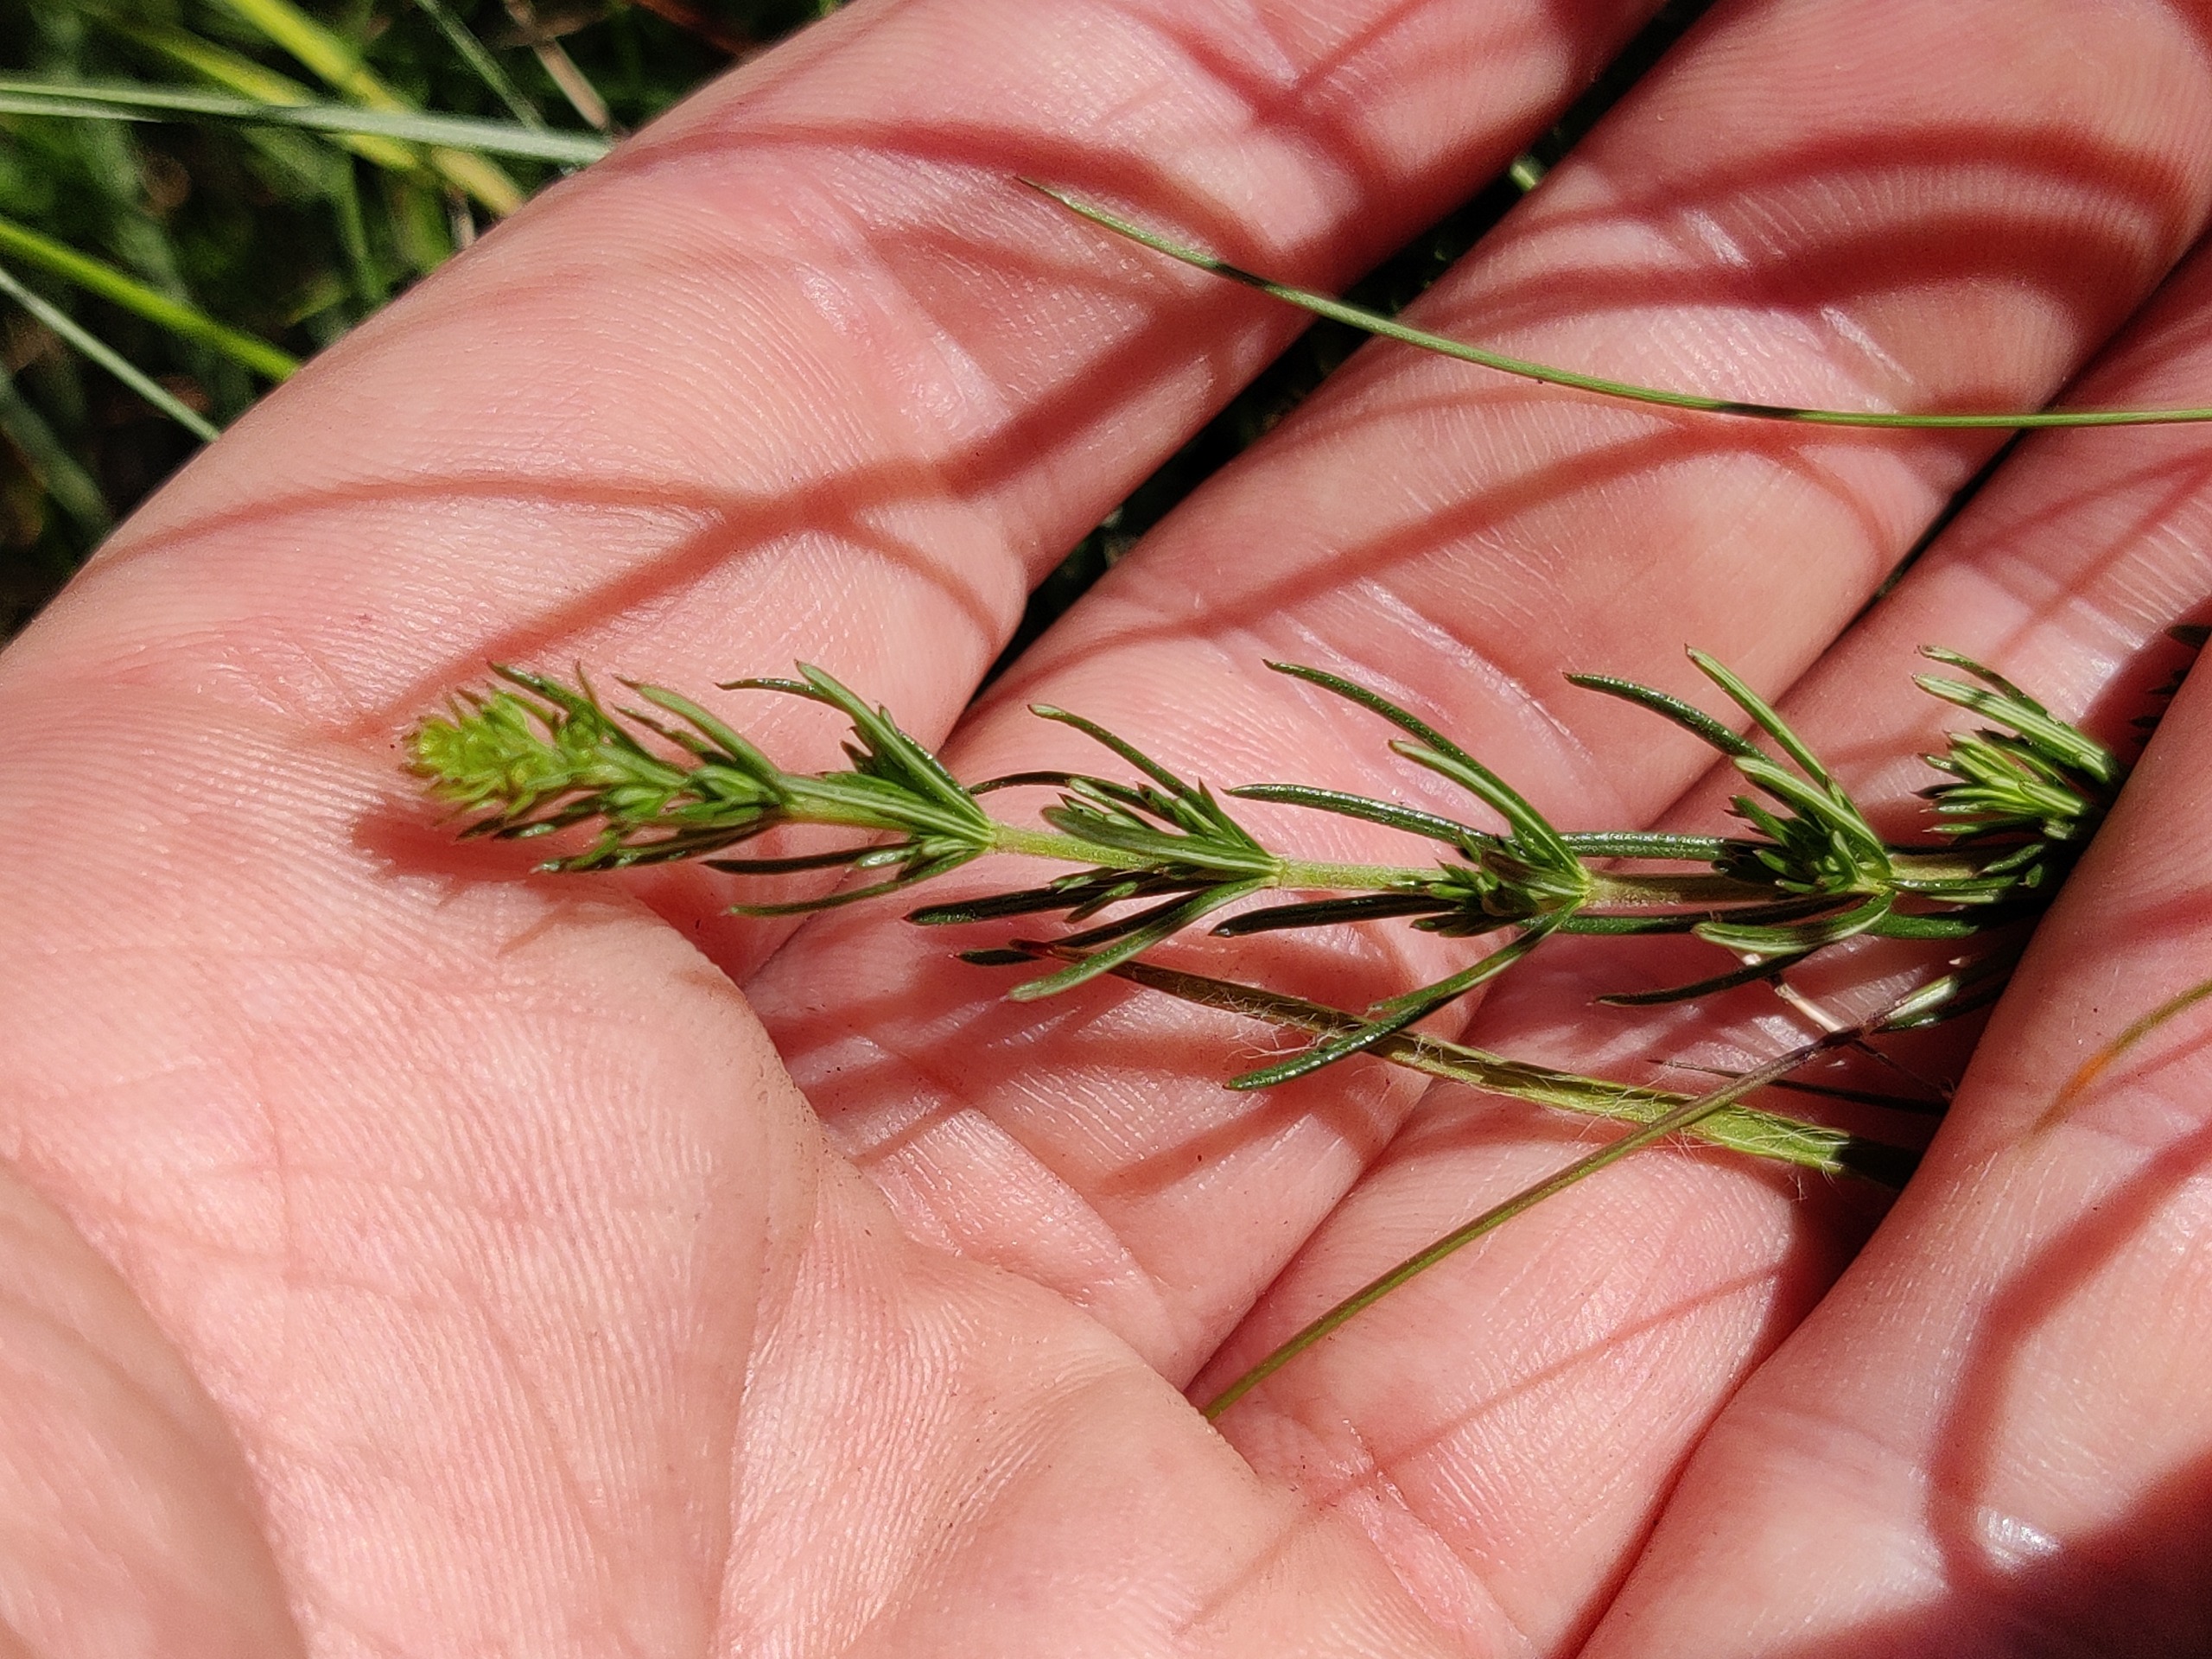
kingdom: Plantae
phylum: Tracheophyta
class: Magnoliopsida
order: Gentianales
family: Rubiaceae
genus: Galium
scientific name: Galium verum
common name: Gul snerre
